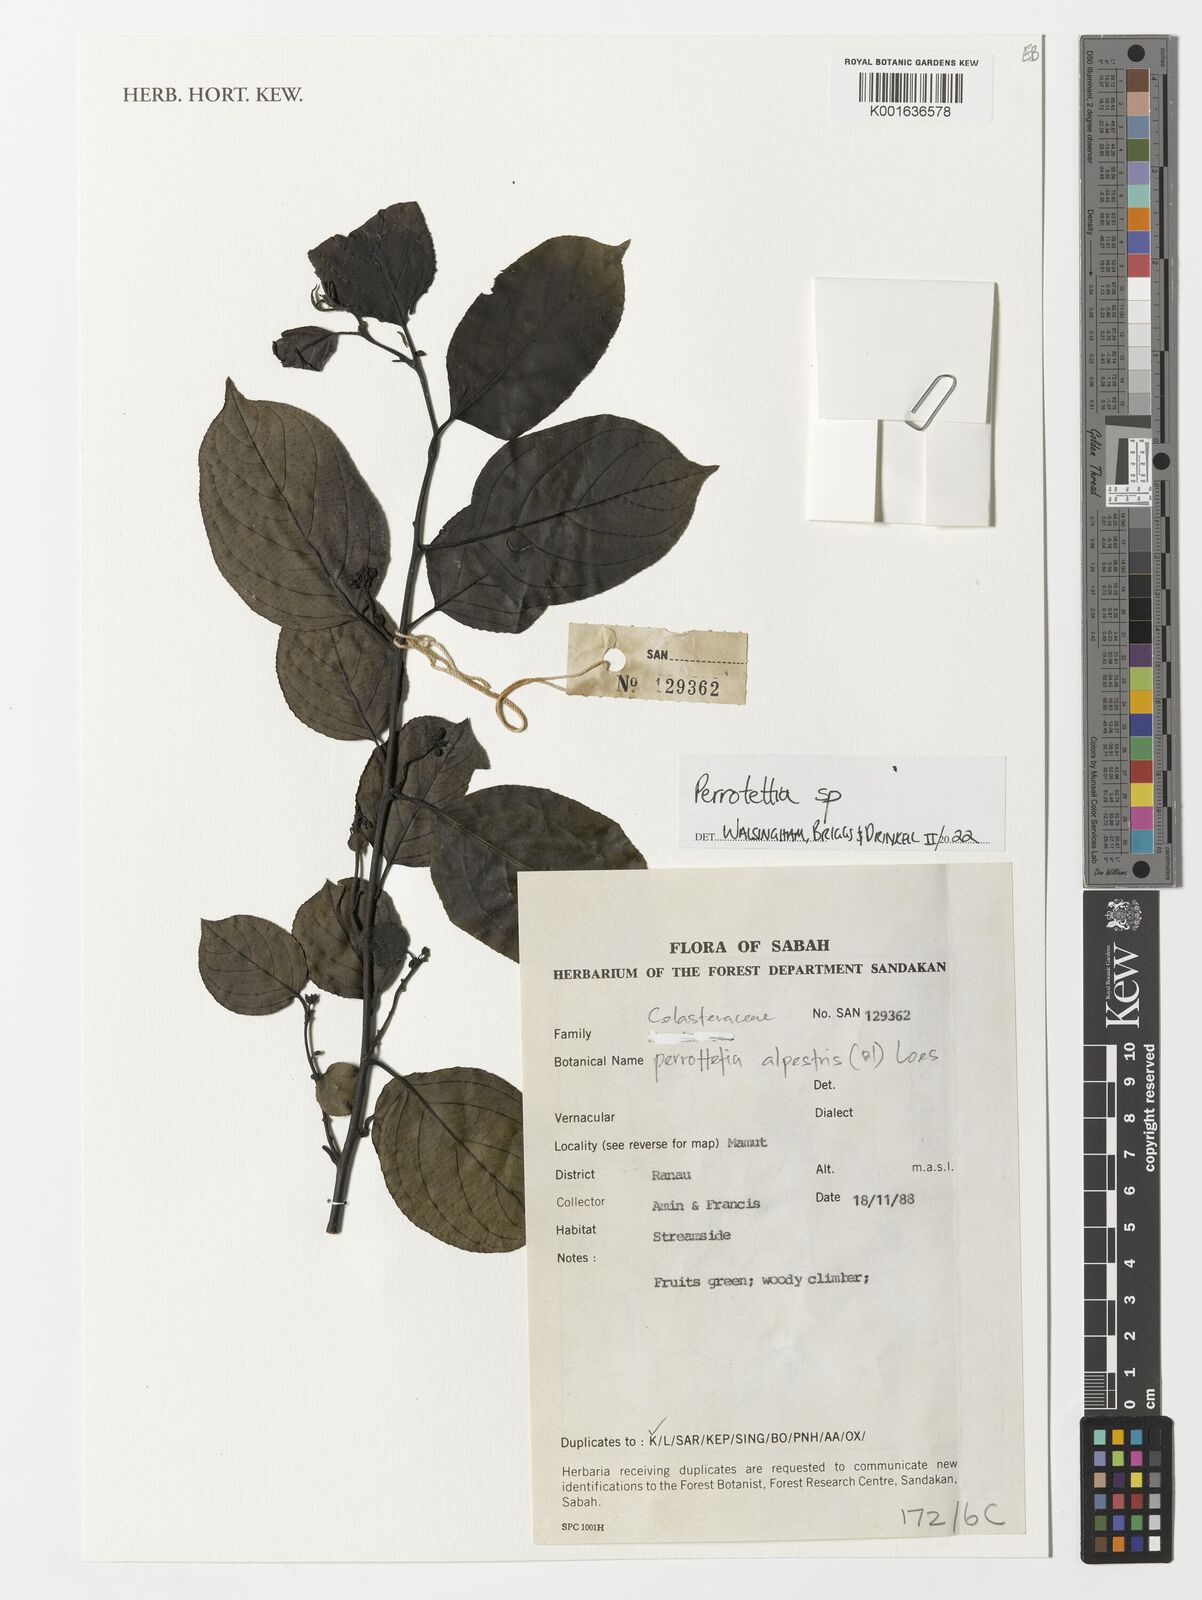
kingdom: Plantae
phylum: Tracheophyta
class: Magnoliopsida
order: Huerteales
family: Dipentodontaceae
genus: Perrottetia
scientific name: Perrottetia
